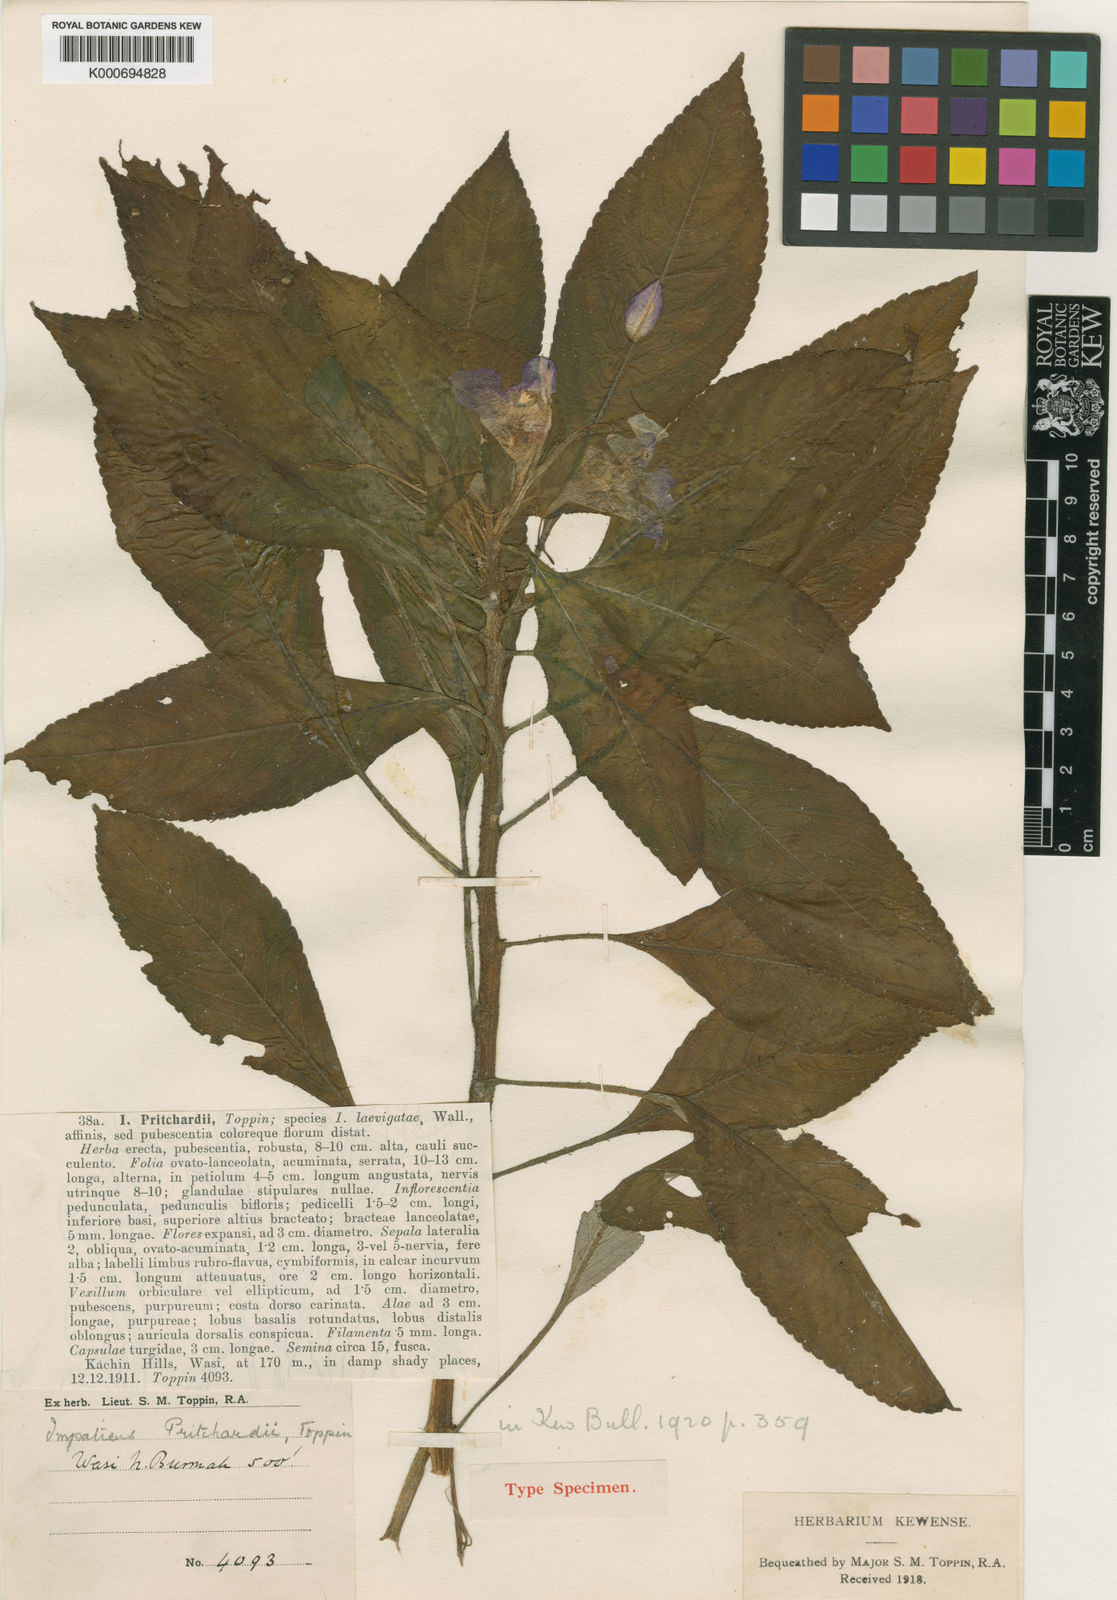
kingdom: Plantae
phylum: Tracheophyta
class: Magnoliopsida
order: Ericales
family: Balsaminaceae
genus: Impatiens
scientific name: Impatiens khasiana
